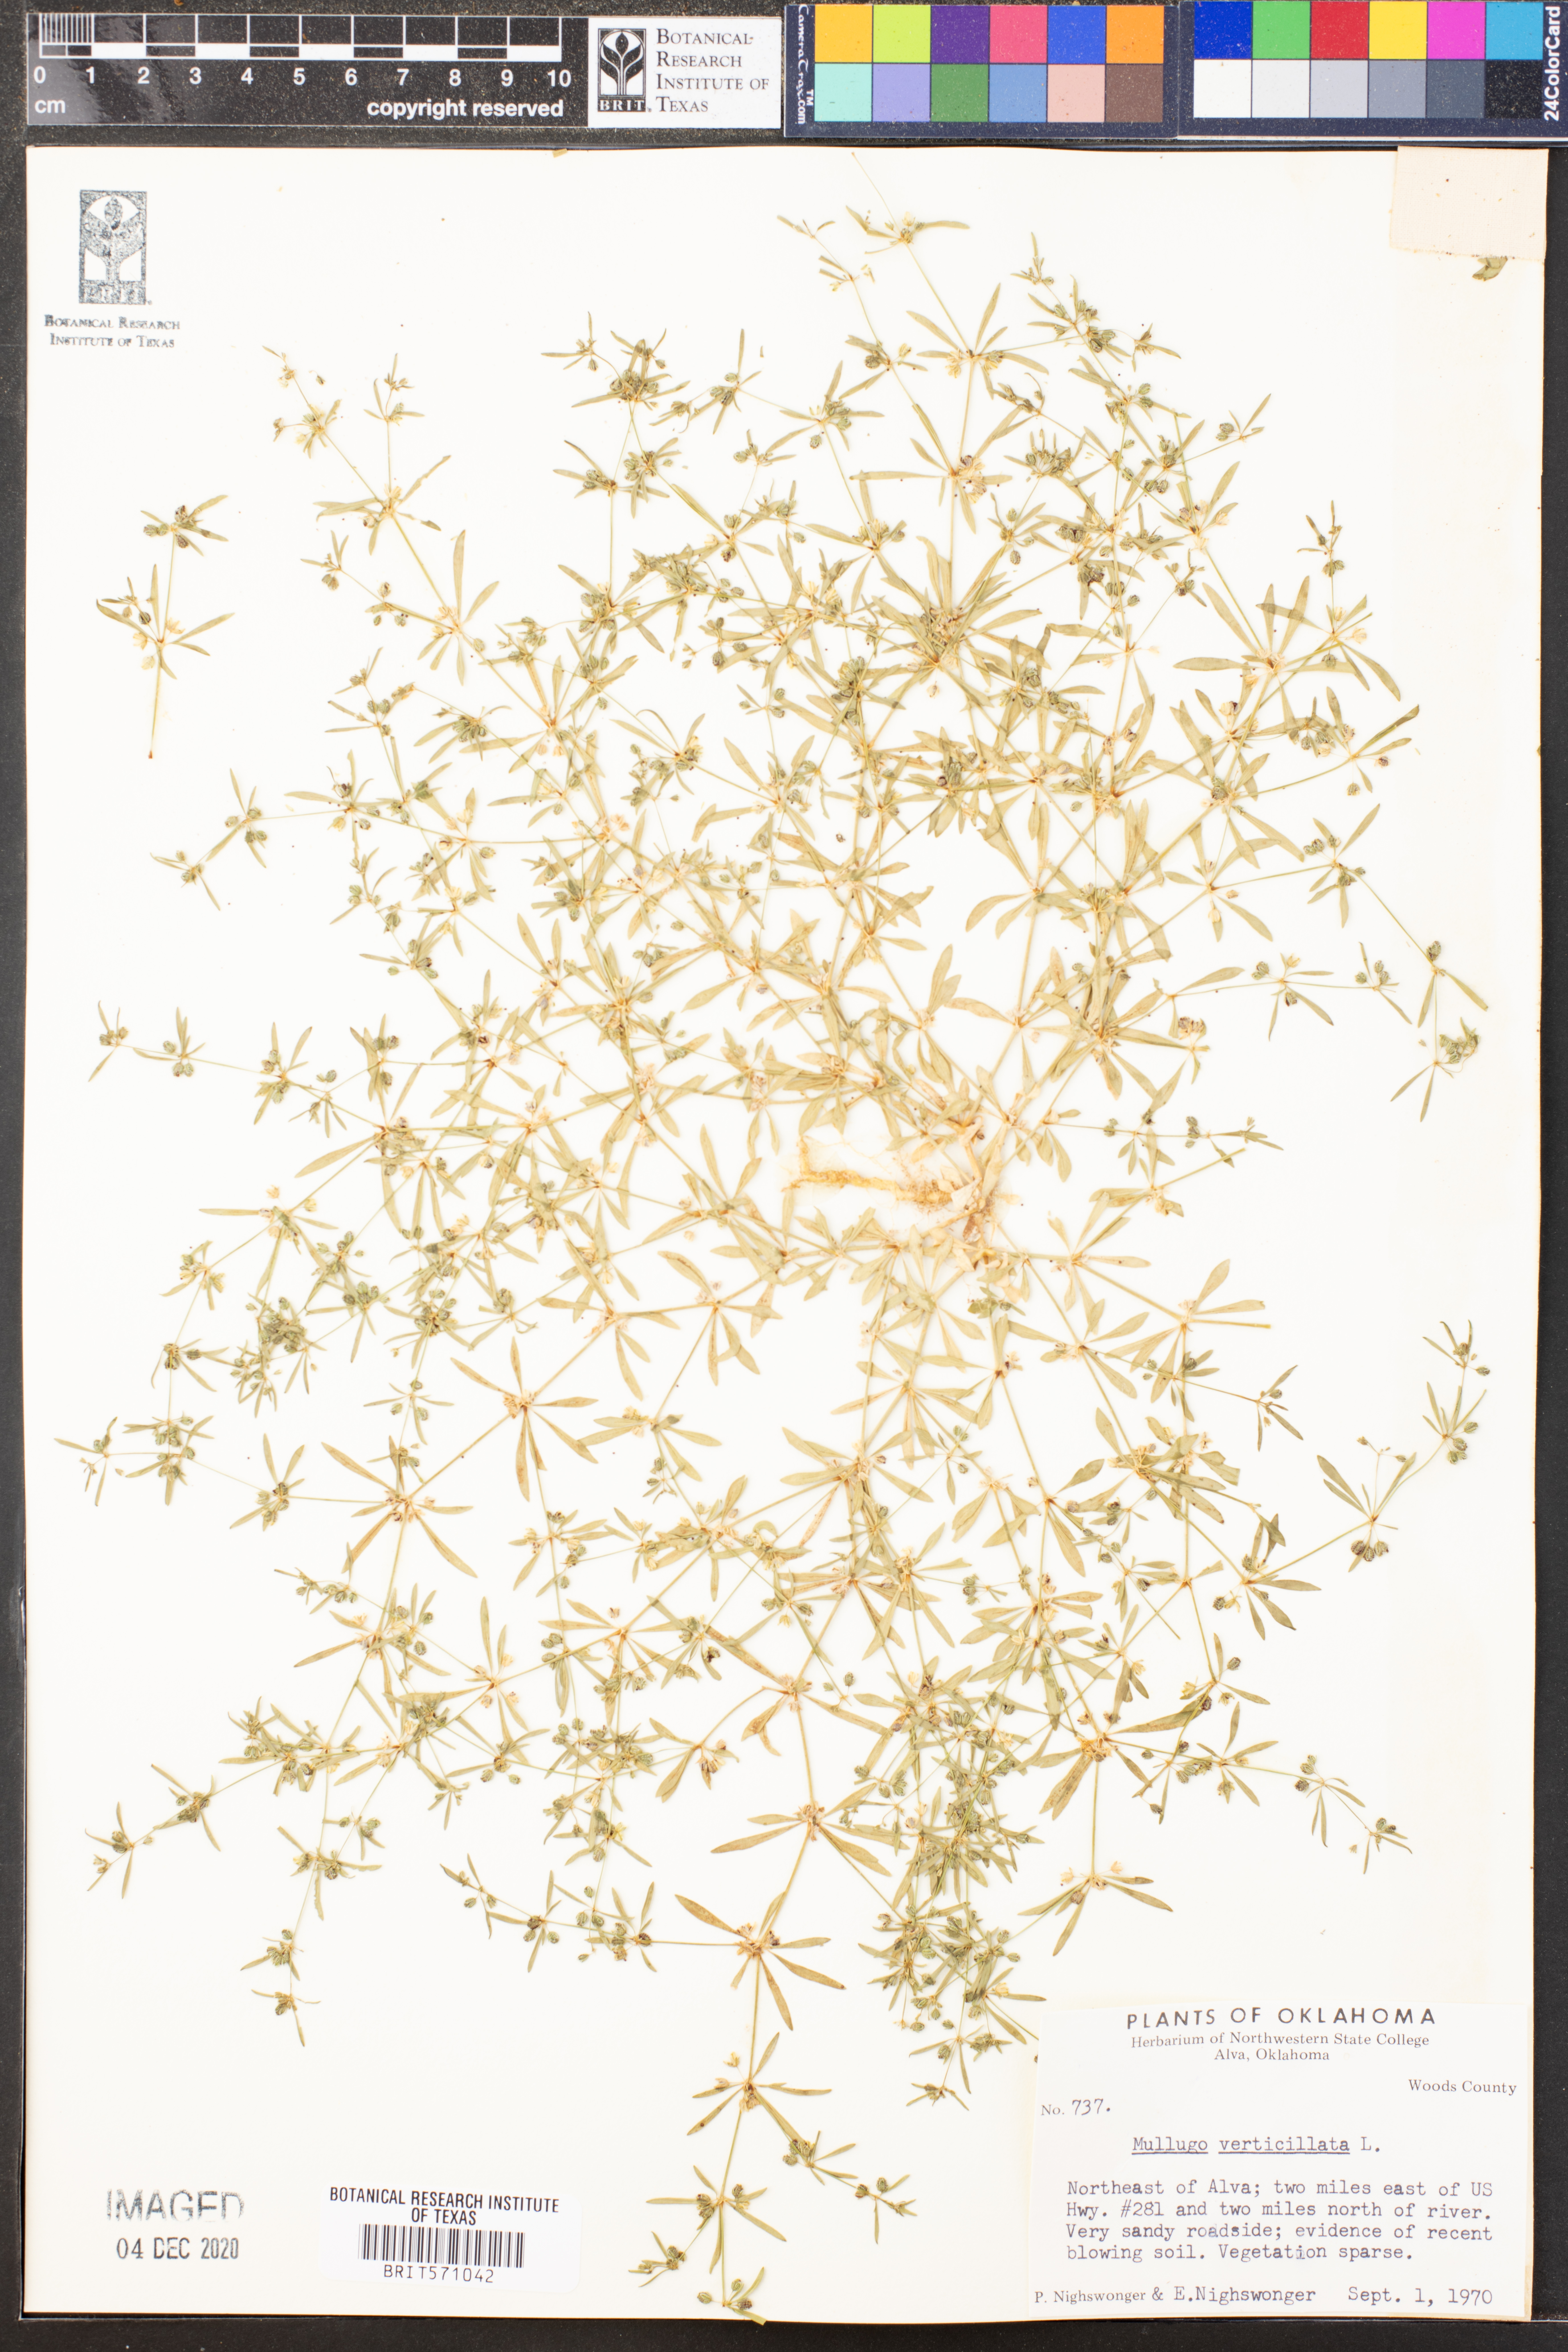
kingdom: Plantae
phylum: Tracheophyta
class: Magnoliopsida
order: Caryophyllales
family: Molluginaceae
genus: Mollugo
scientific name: Mollugo verticillata
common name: Green carpetweed
